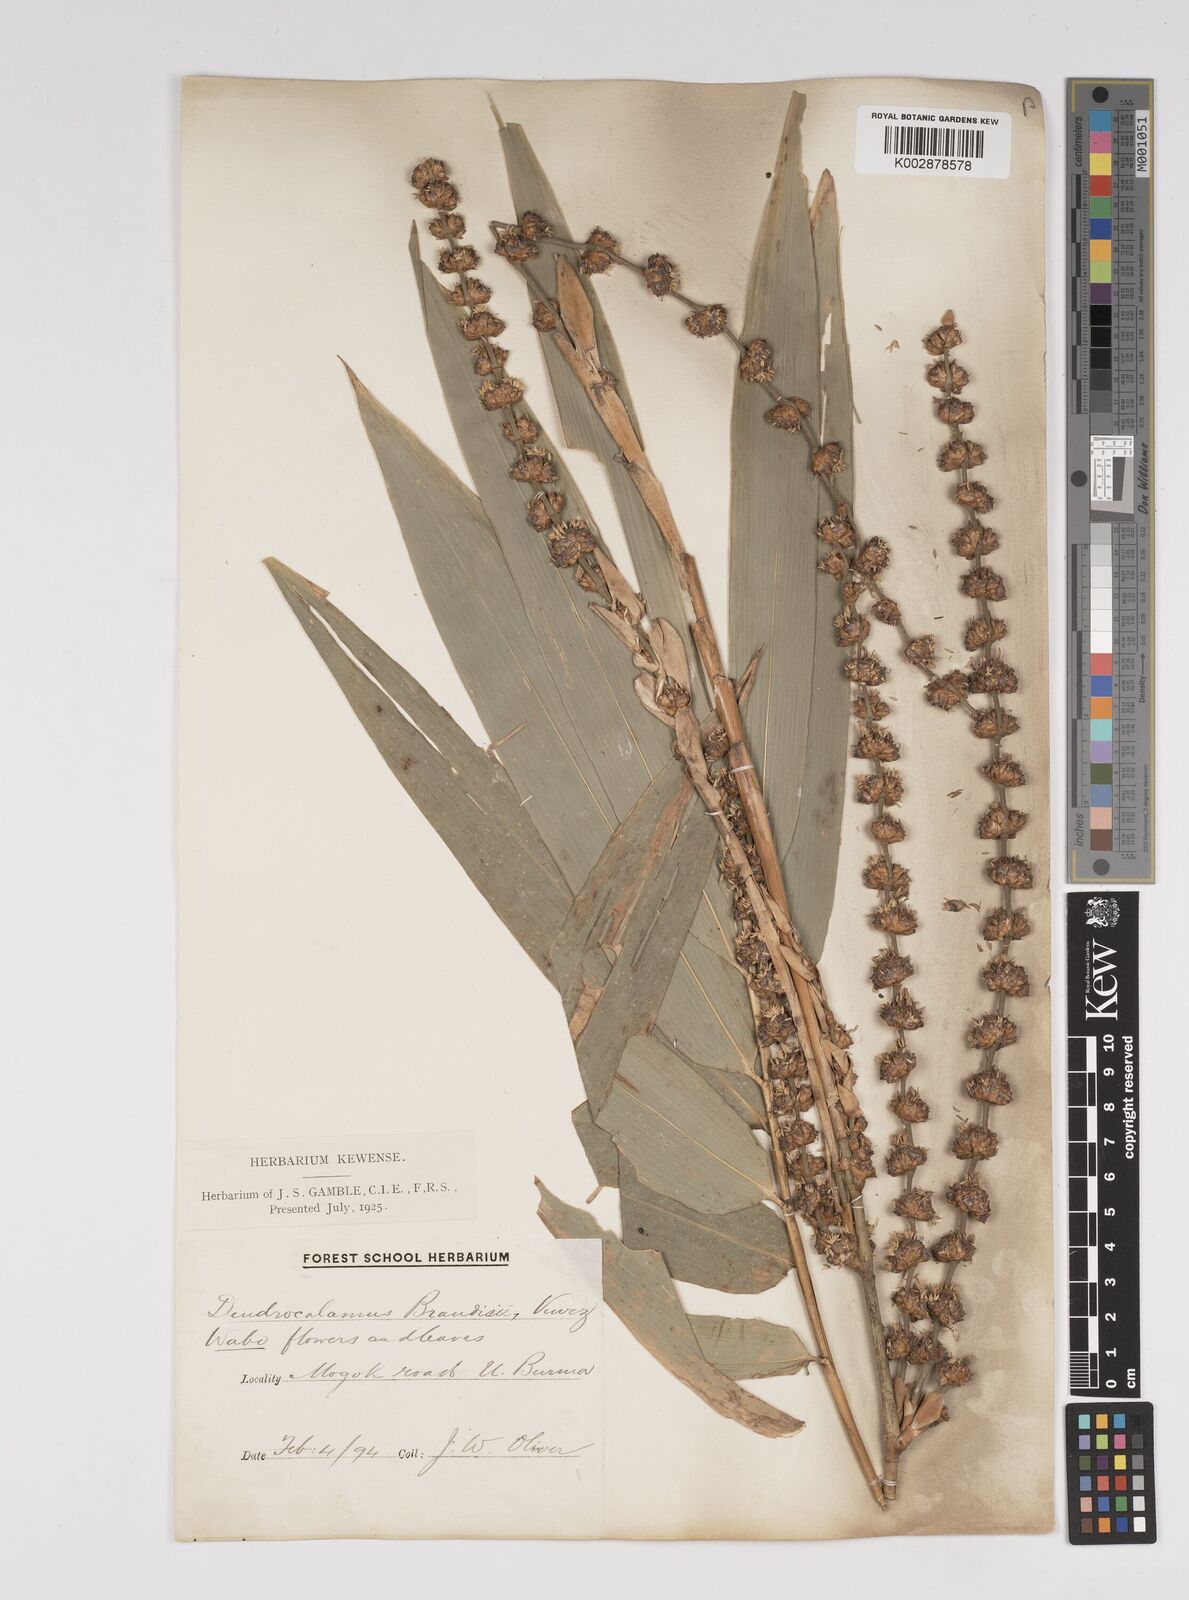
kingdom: Plantae
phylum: Tracheophyta
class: Liliopsida
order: Poales
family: Poaceae
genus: Dendrocalamus
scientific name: Dendrocalamus brandisii
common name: Velvetleaf bamboo
